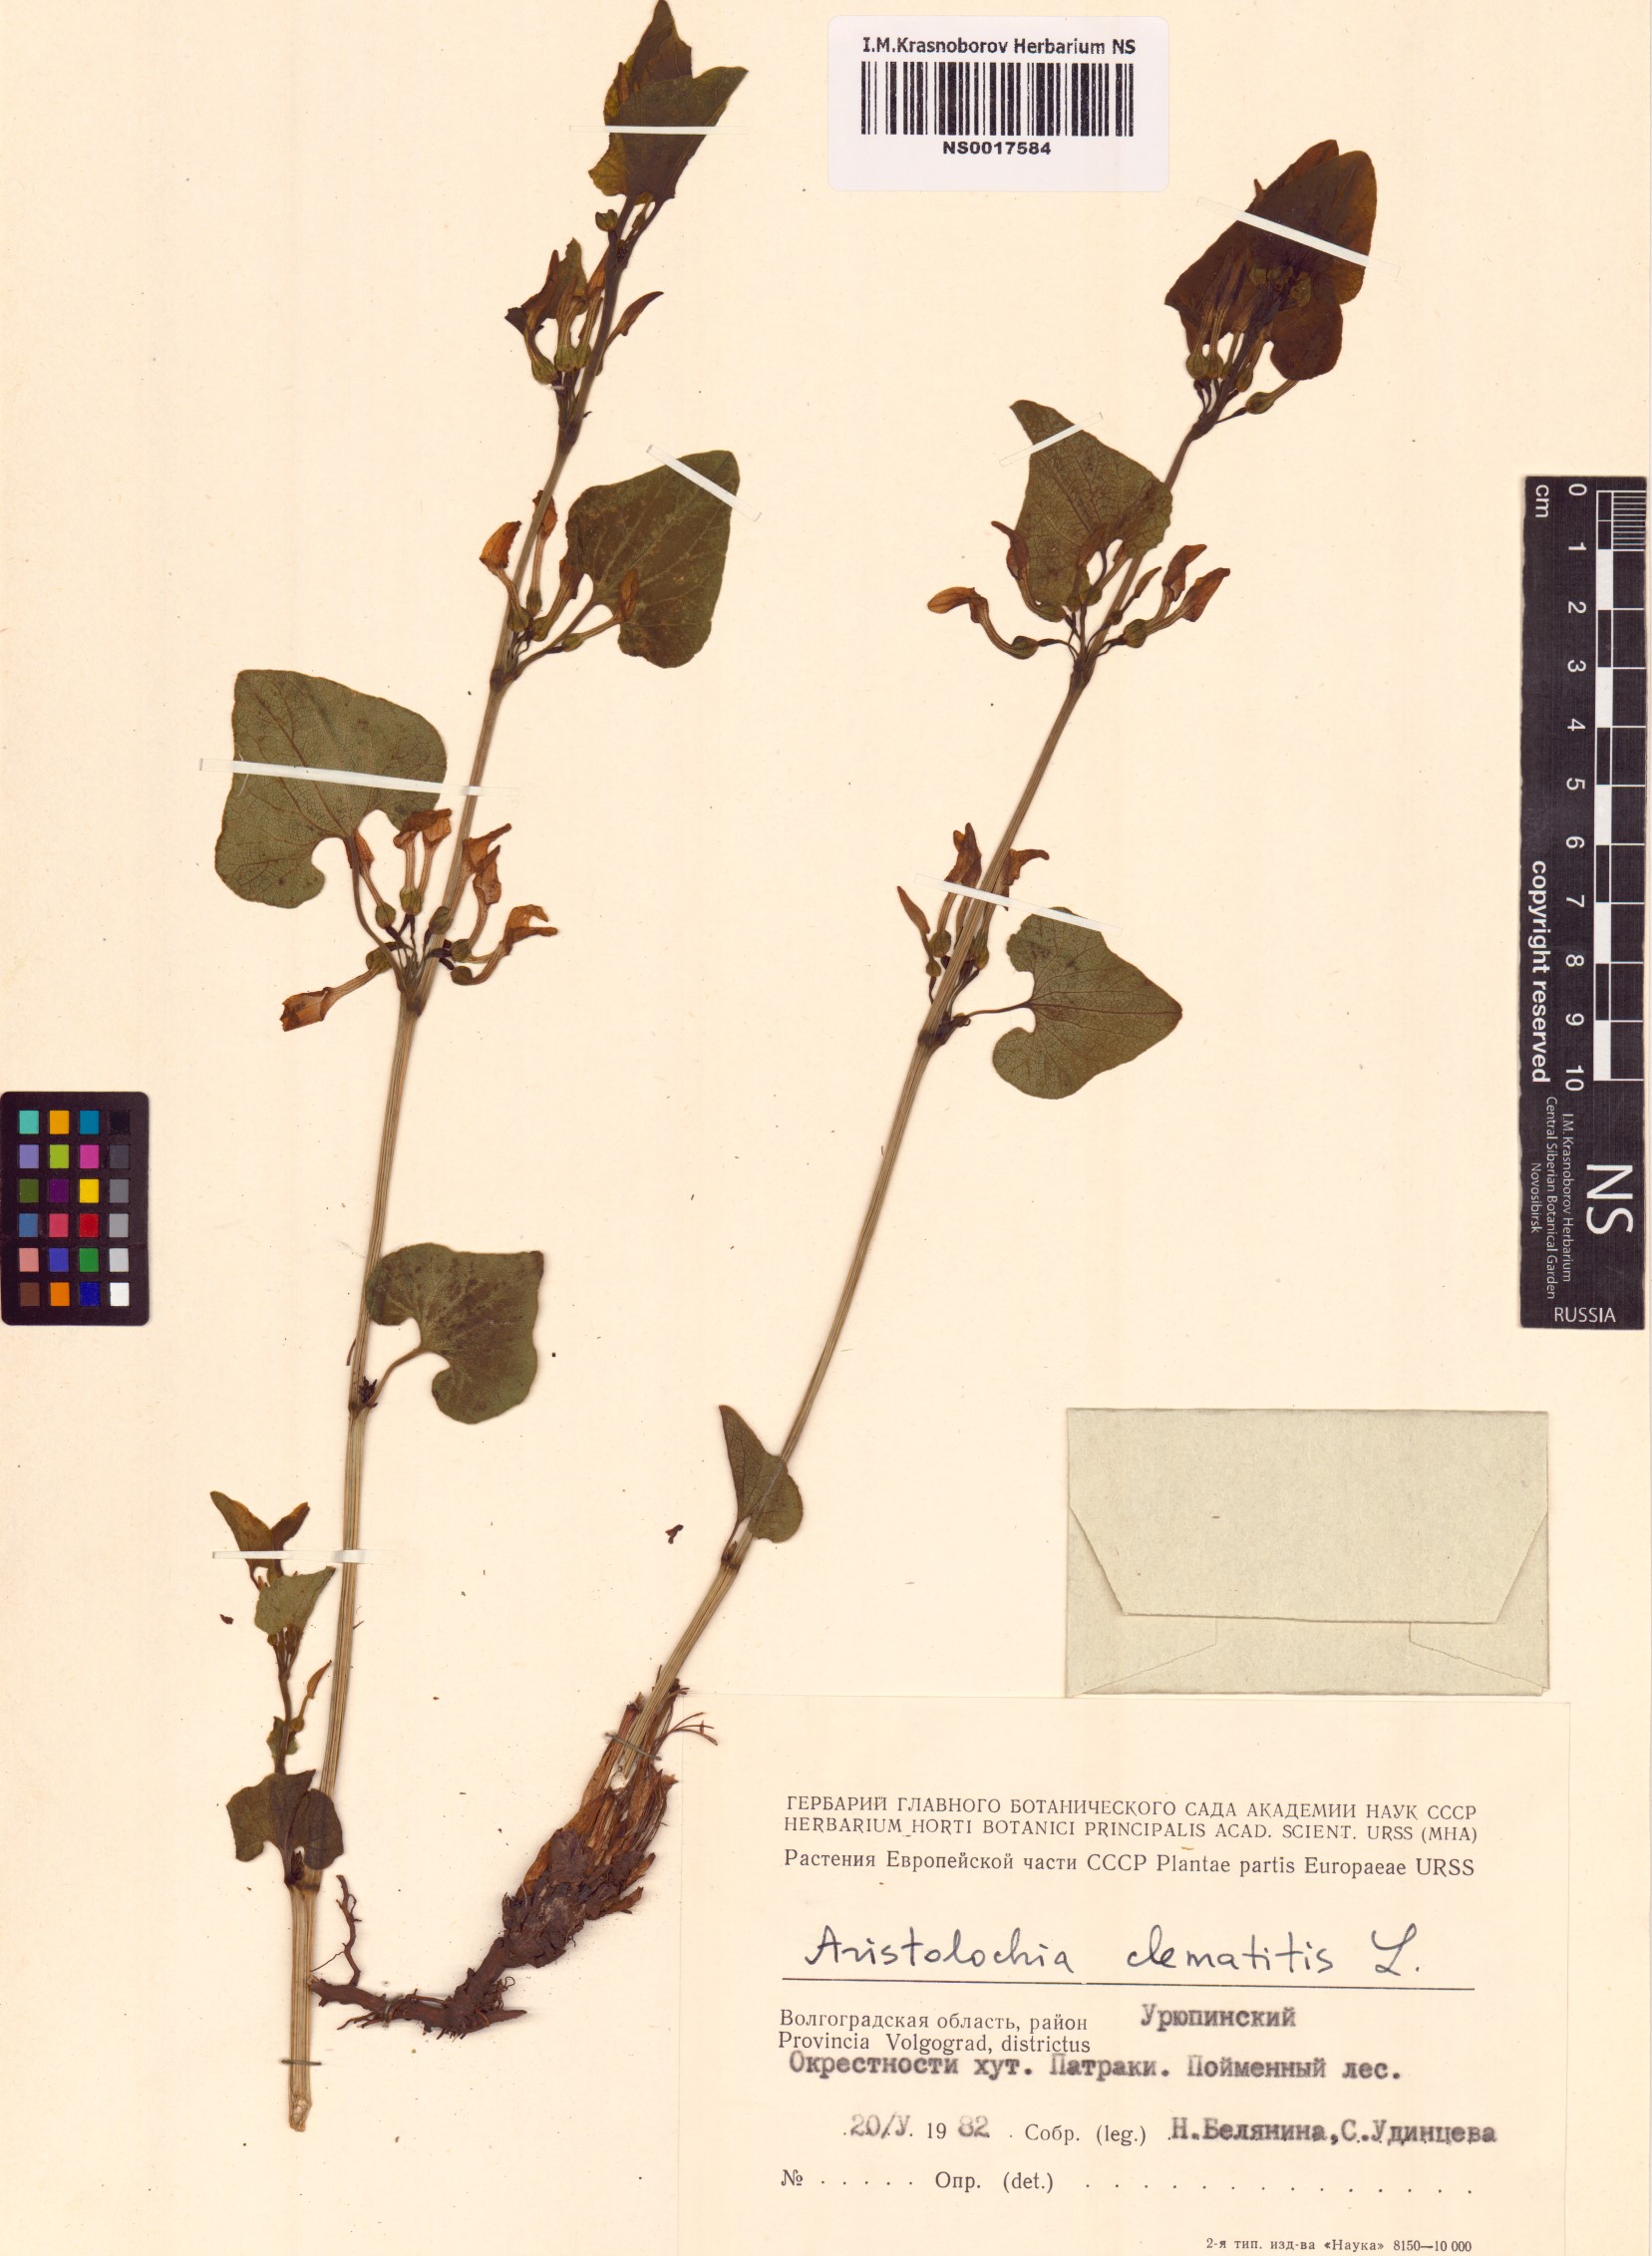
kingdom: Plantae
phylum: Tracheophyta
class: Magnoliopsida
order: Piperales
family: Aristolochiaceae
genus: Aristolochia
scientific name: Aristolochia clematitis
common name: Birthwort
